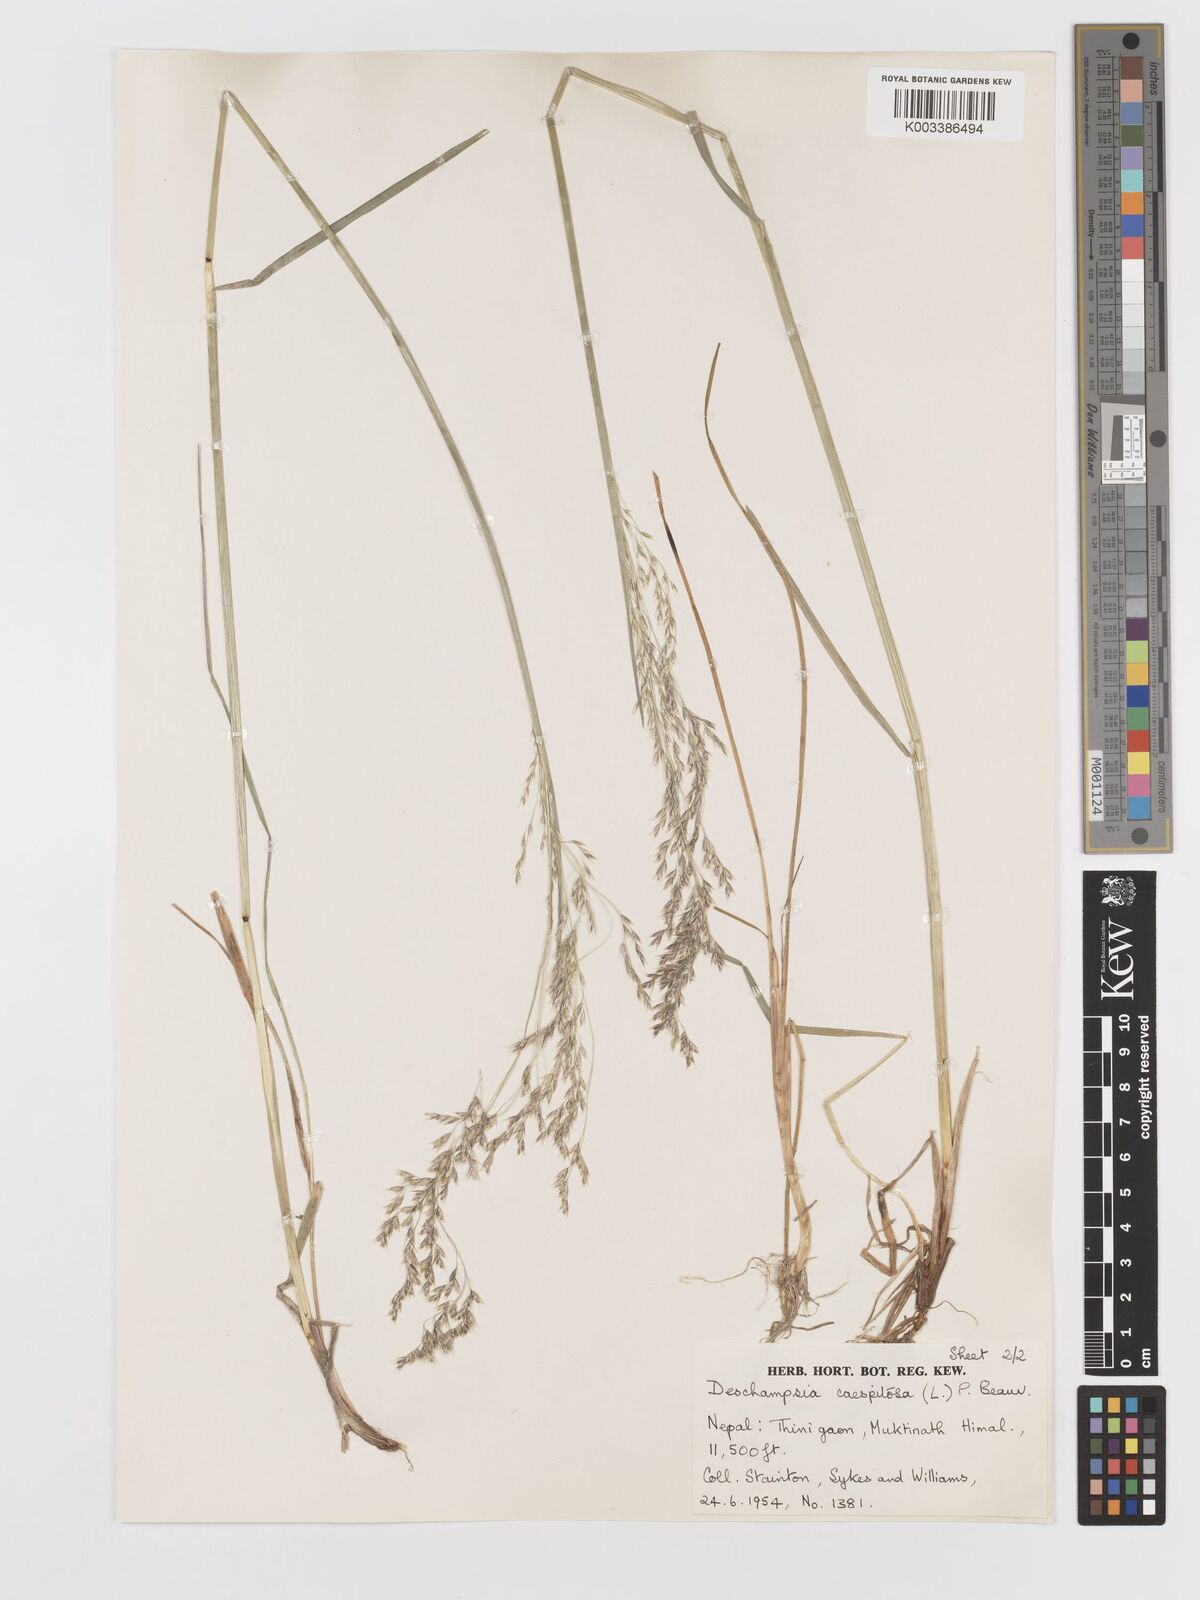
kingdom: Plantae
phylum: Tracheophyta
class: Liliopsida
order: Poales
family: Poaceae
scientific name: Poaceae
